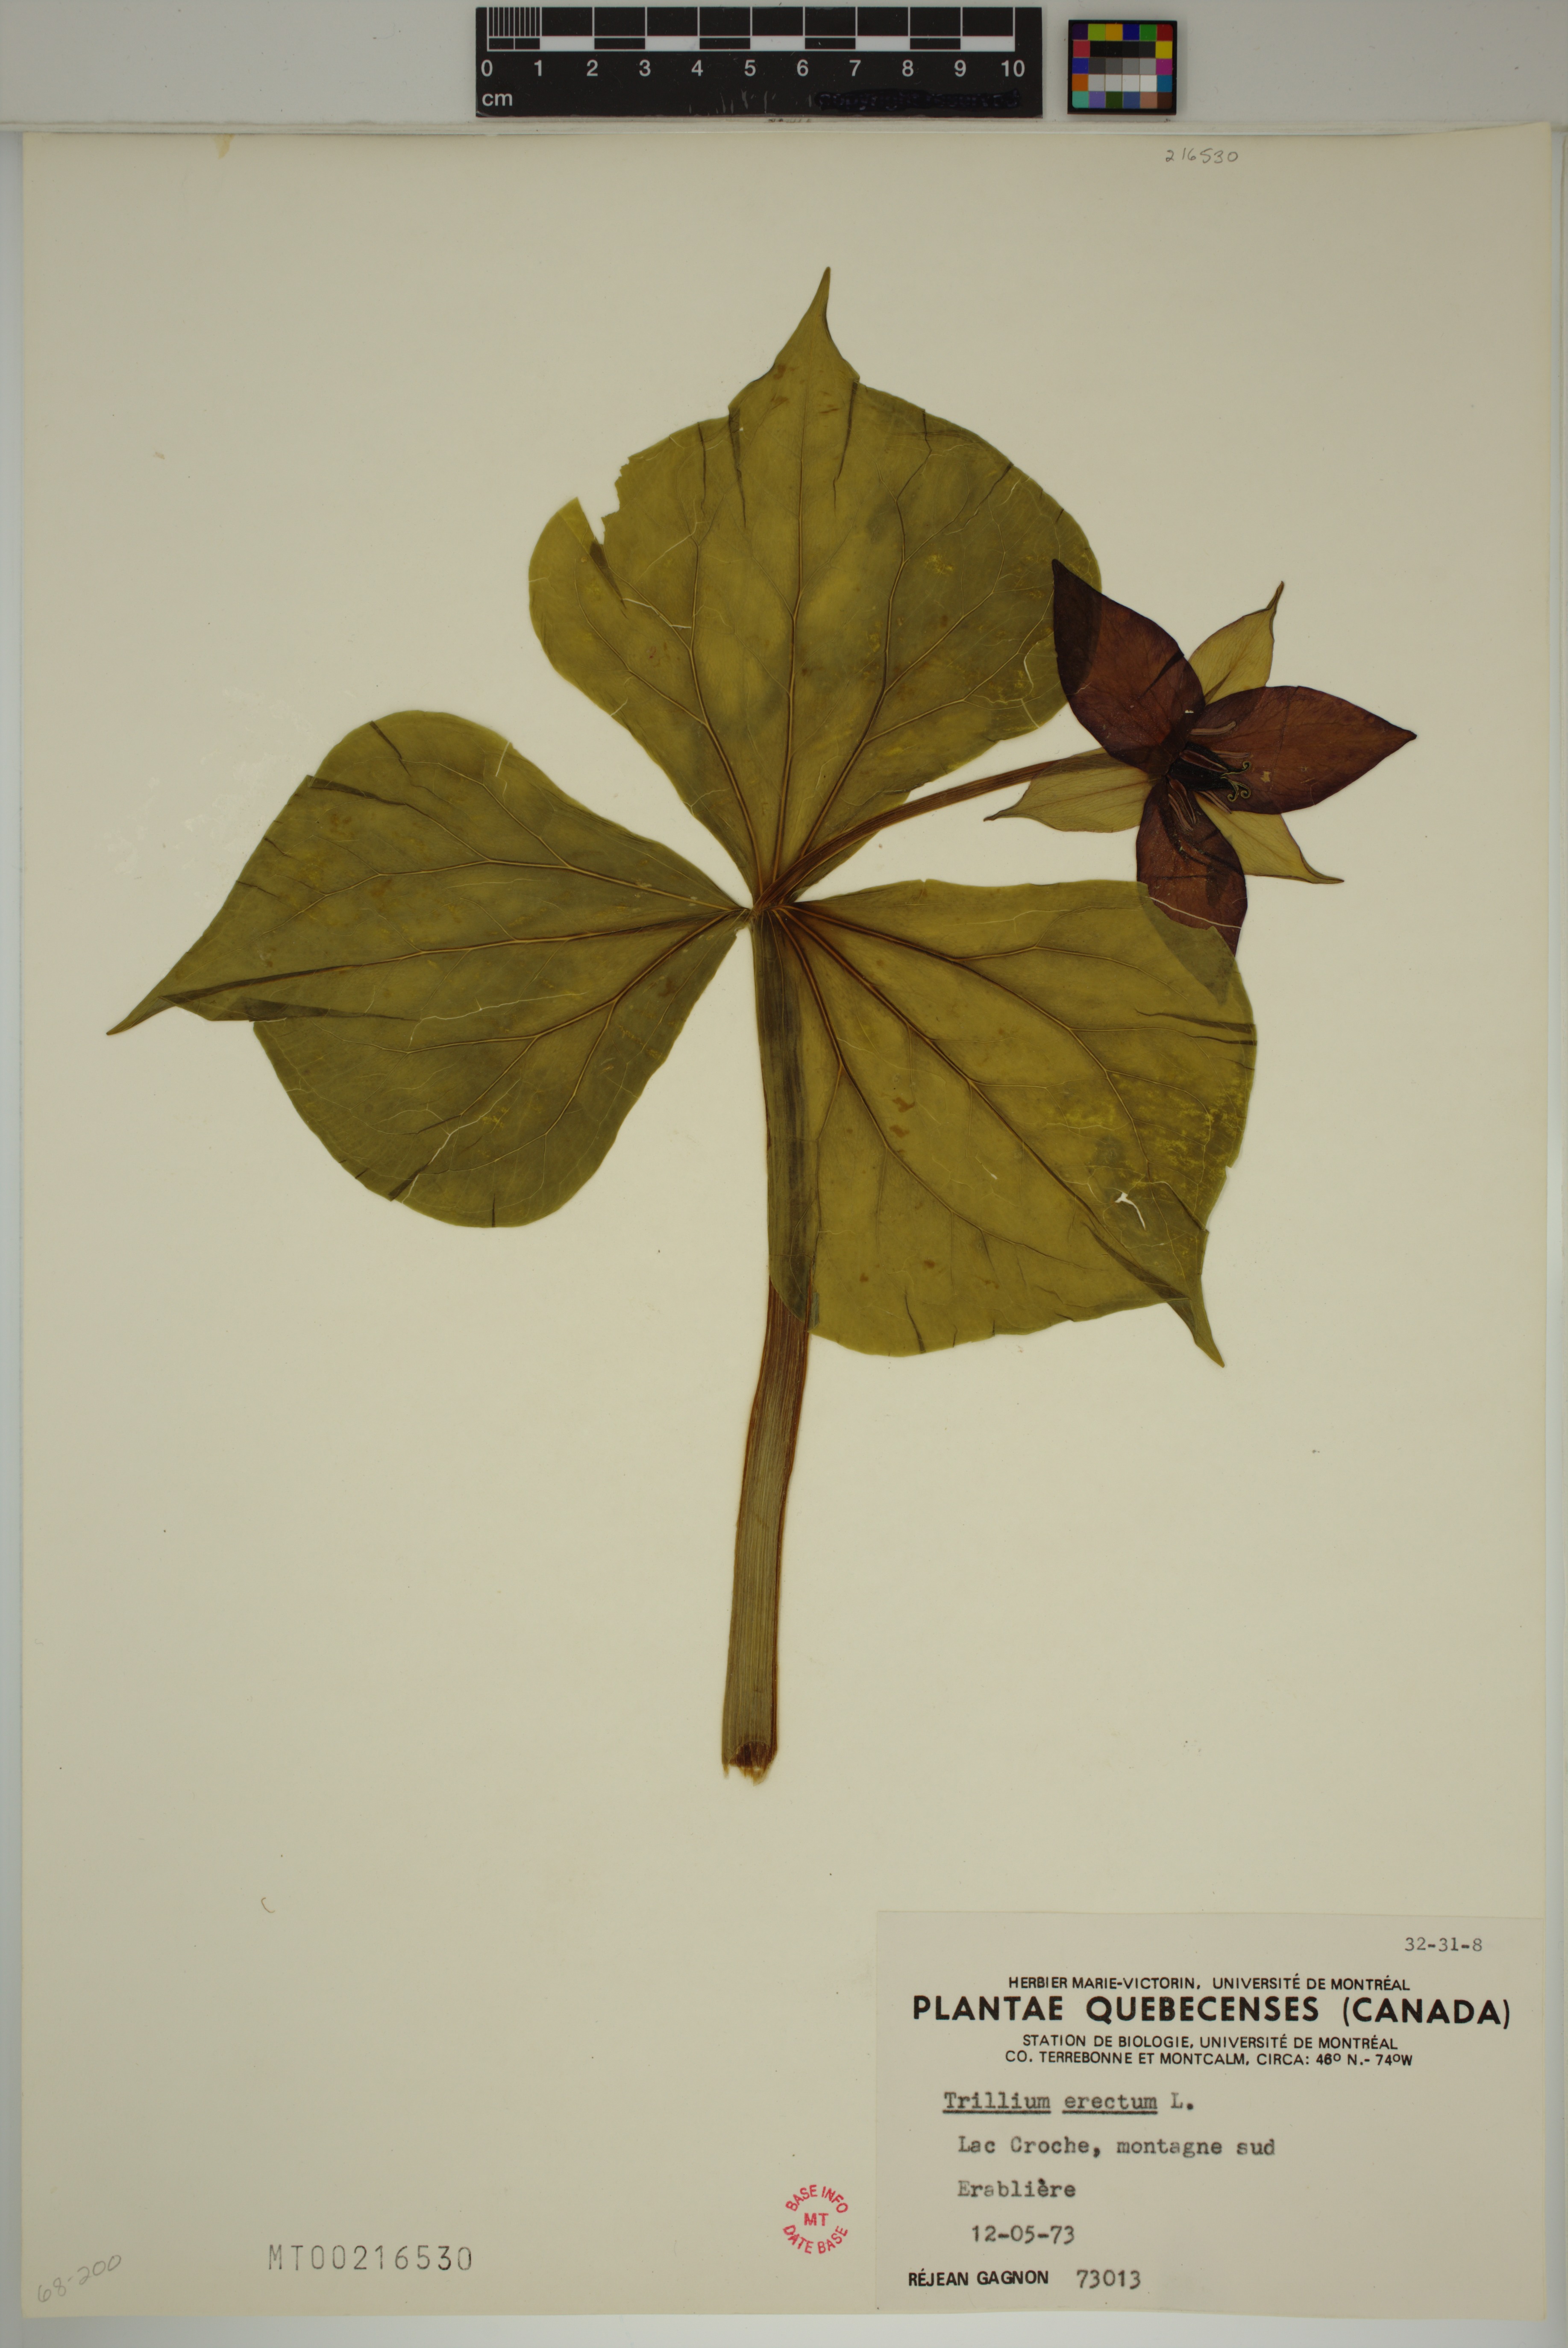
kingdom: Plantae
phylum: Tracheophyta
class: Liliopsida
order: Liliales
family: Melanthiaceae
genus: Trillium
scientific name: Trillium erectum
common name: Purple trillium
